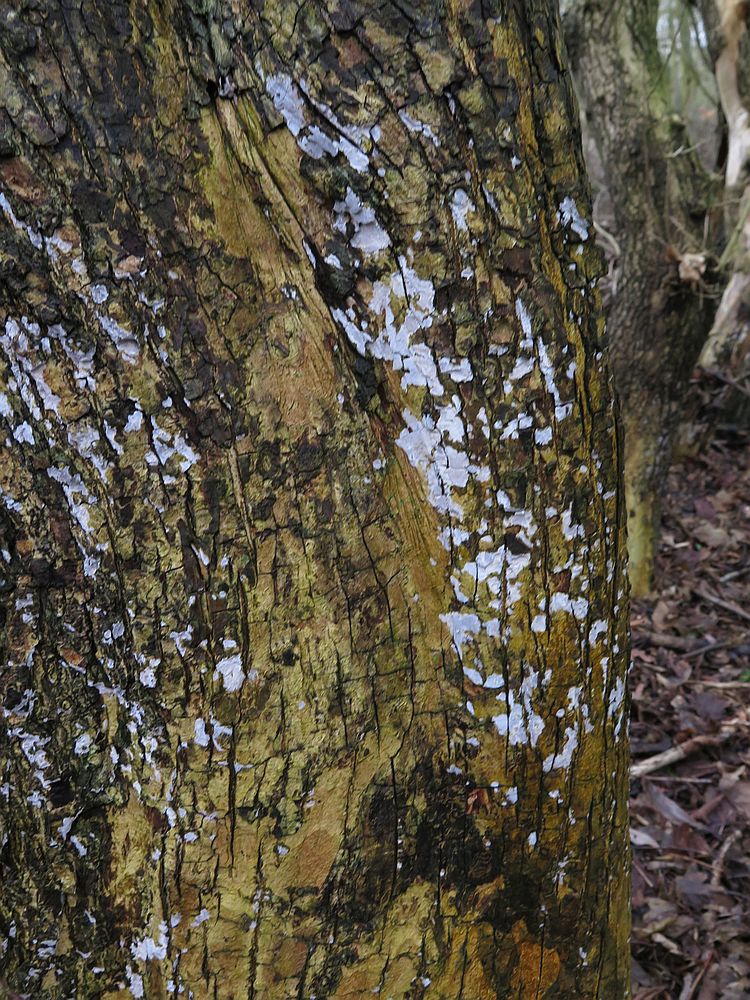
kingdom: Fungi
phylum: Basidiomycota
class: Agaricomycetes
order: Agaricales
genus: Dendrothele
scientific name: Dendrothele acerina
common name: navr-kalkplet
